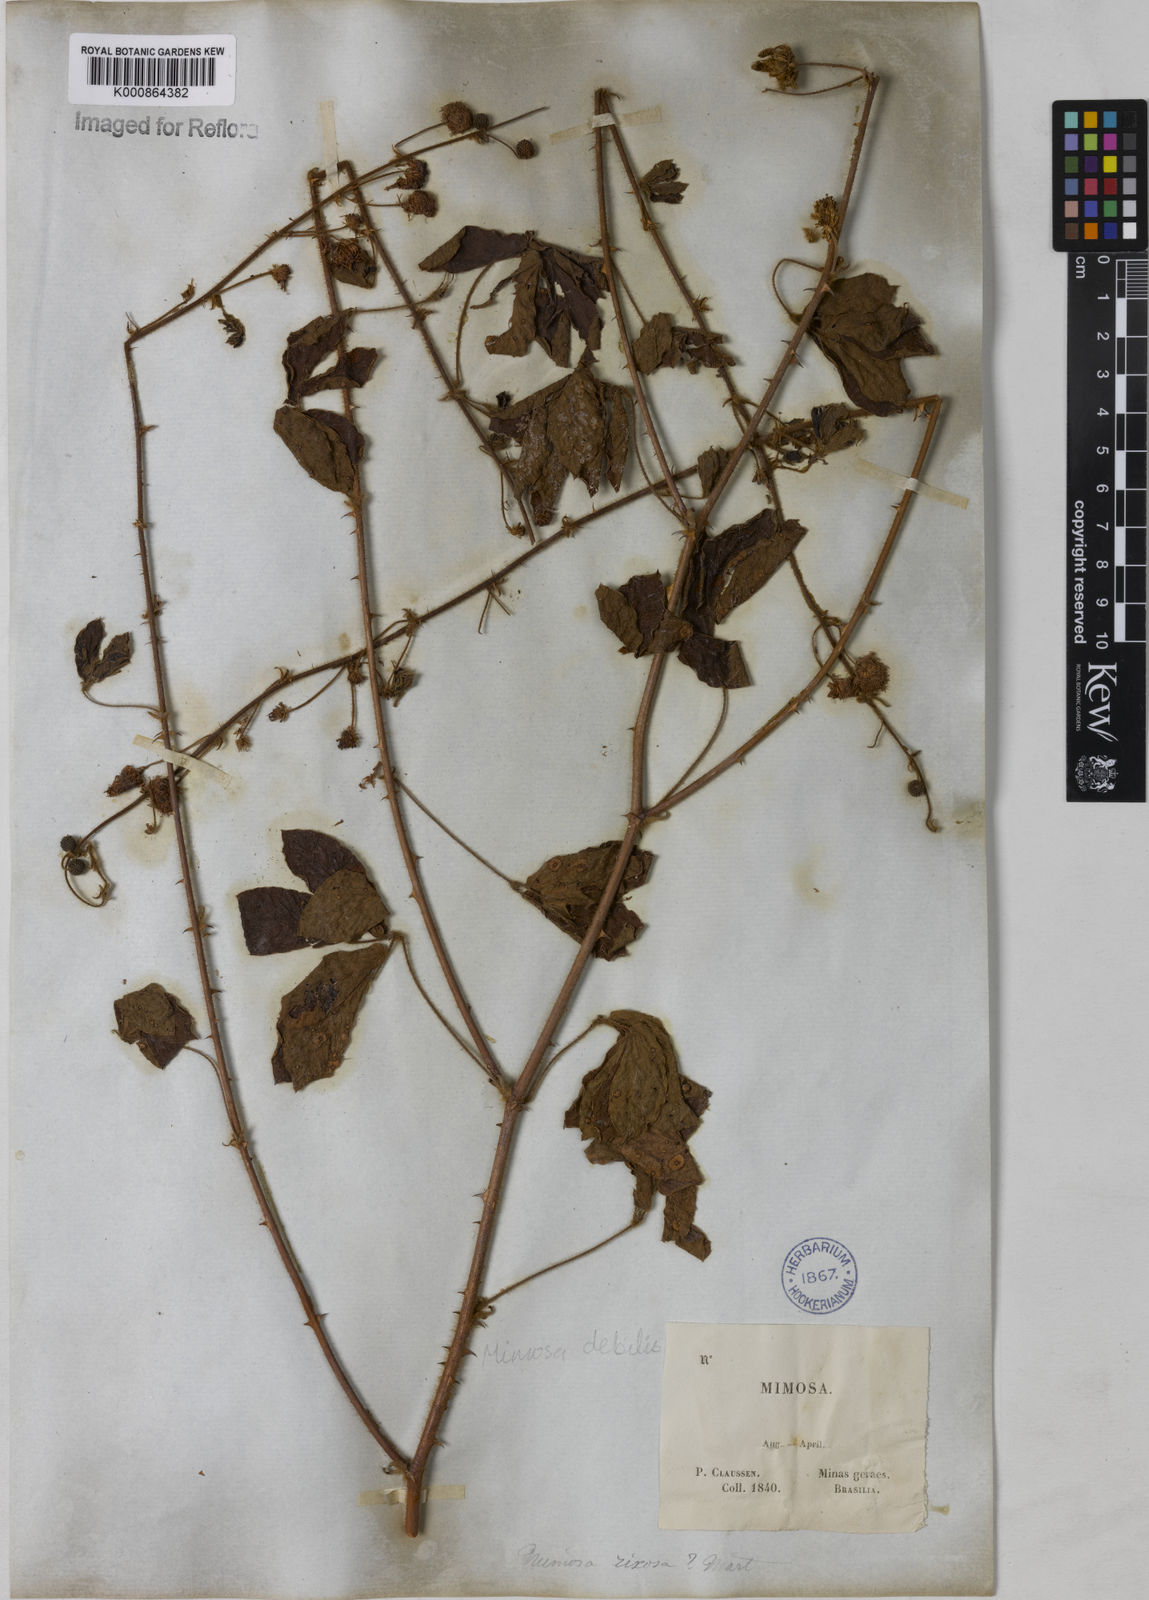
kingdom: Plantae
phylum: Tracheophyta
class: Magnoliopsida
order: Fabales
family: Fabaceae
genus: Mimosa
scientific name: Mimosa
